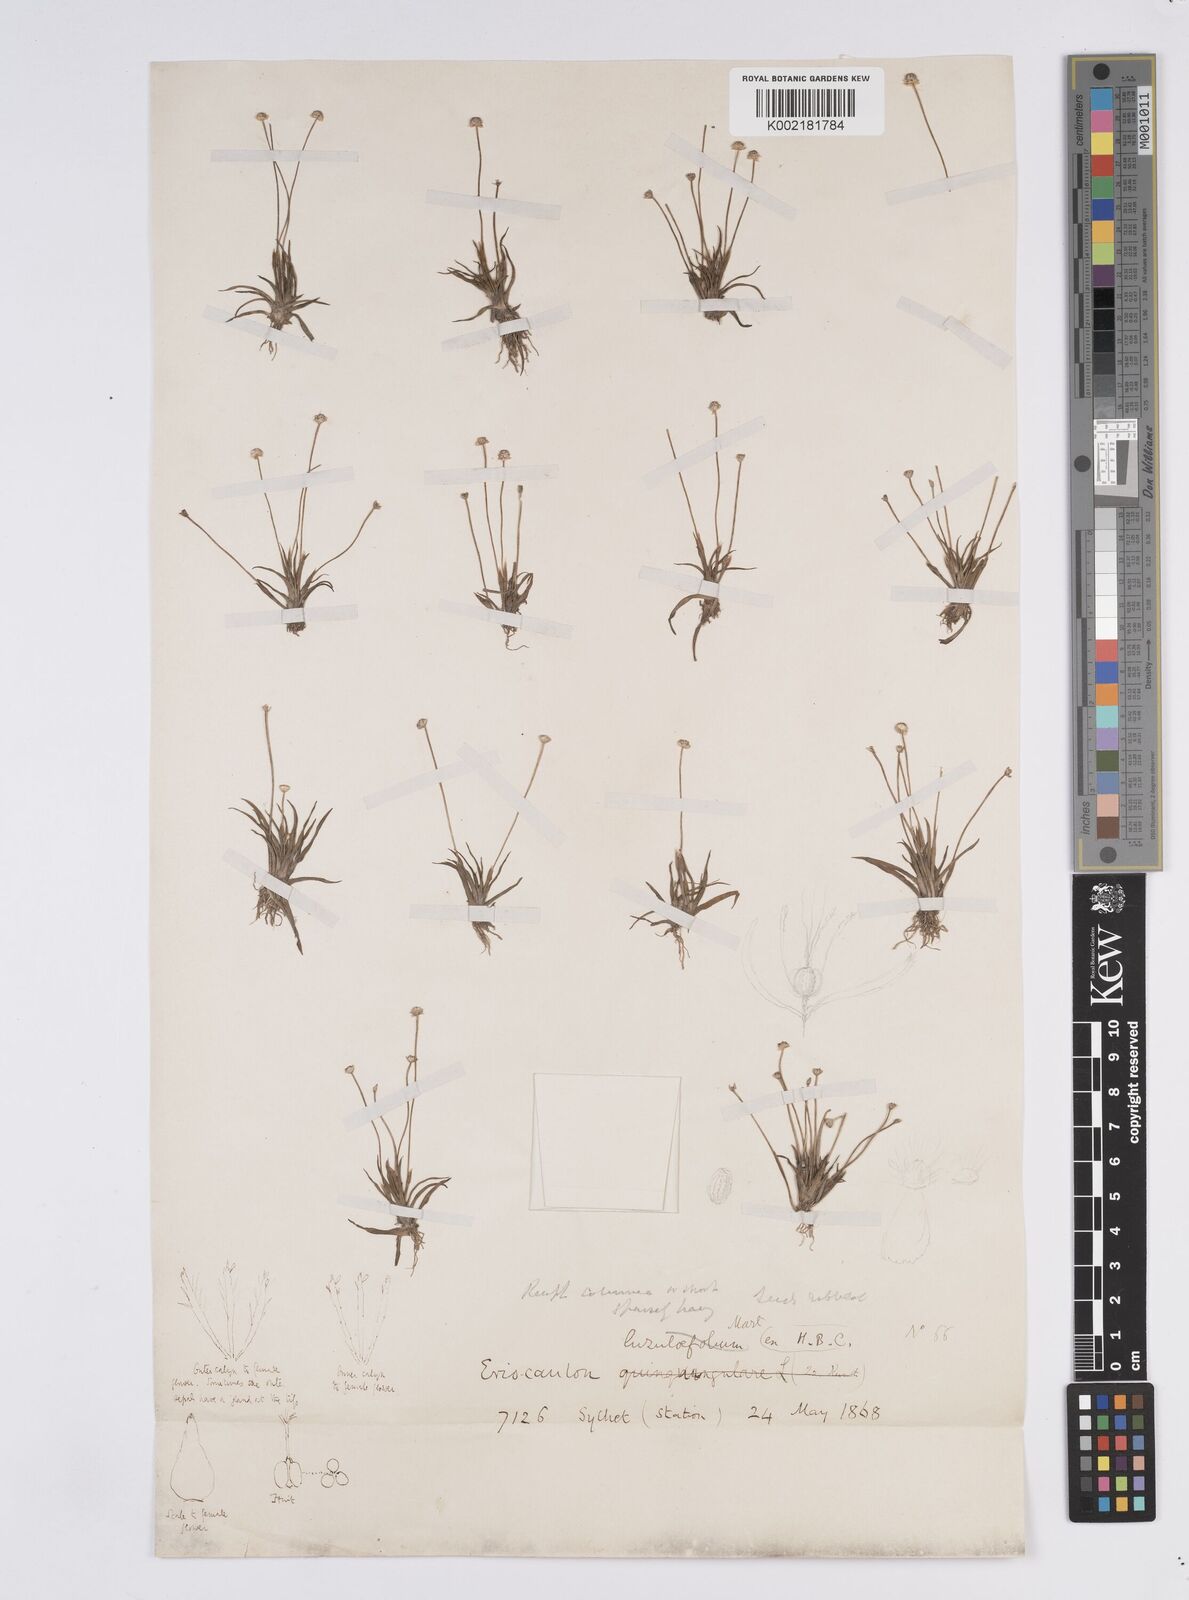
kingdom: Plantae
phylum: Tracheophyta
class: Liliopsida
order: Poales
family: Eriocaulaceae
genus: Eriocaulon
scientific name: Eriocaulon truncatum
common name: Short pipe-wort
